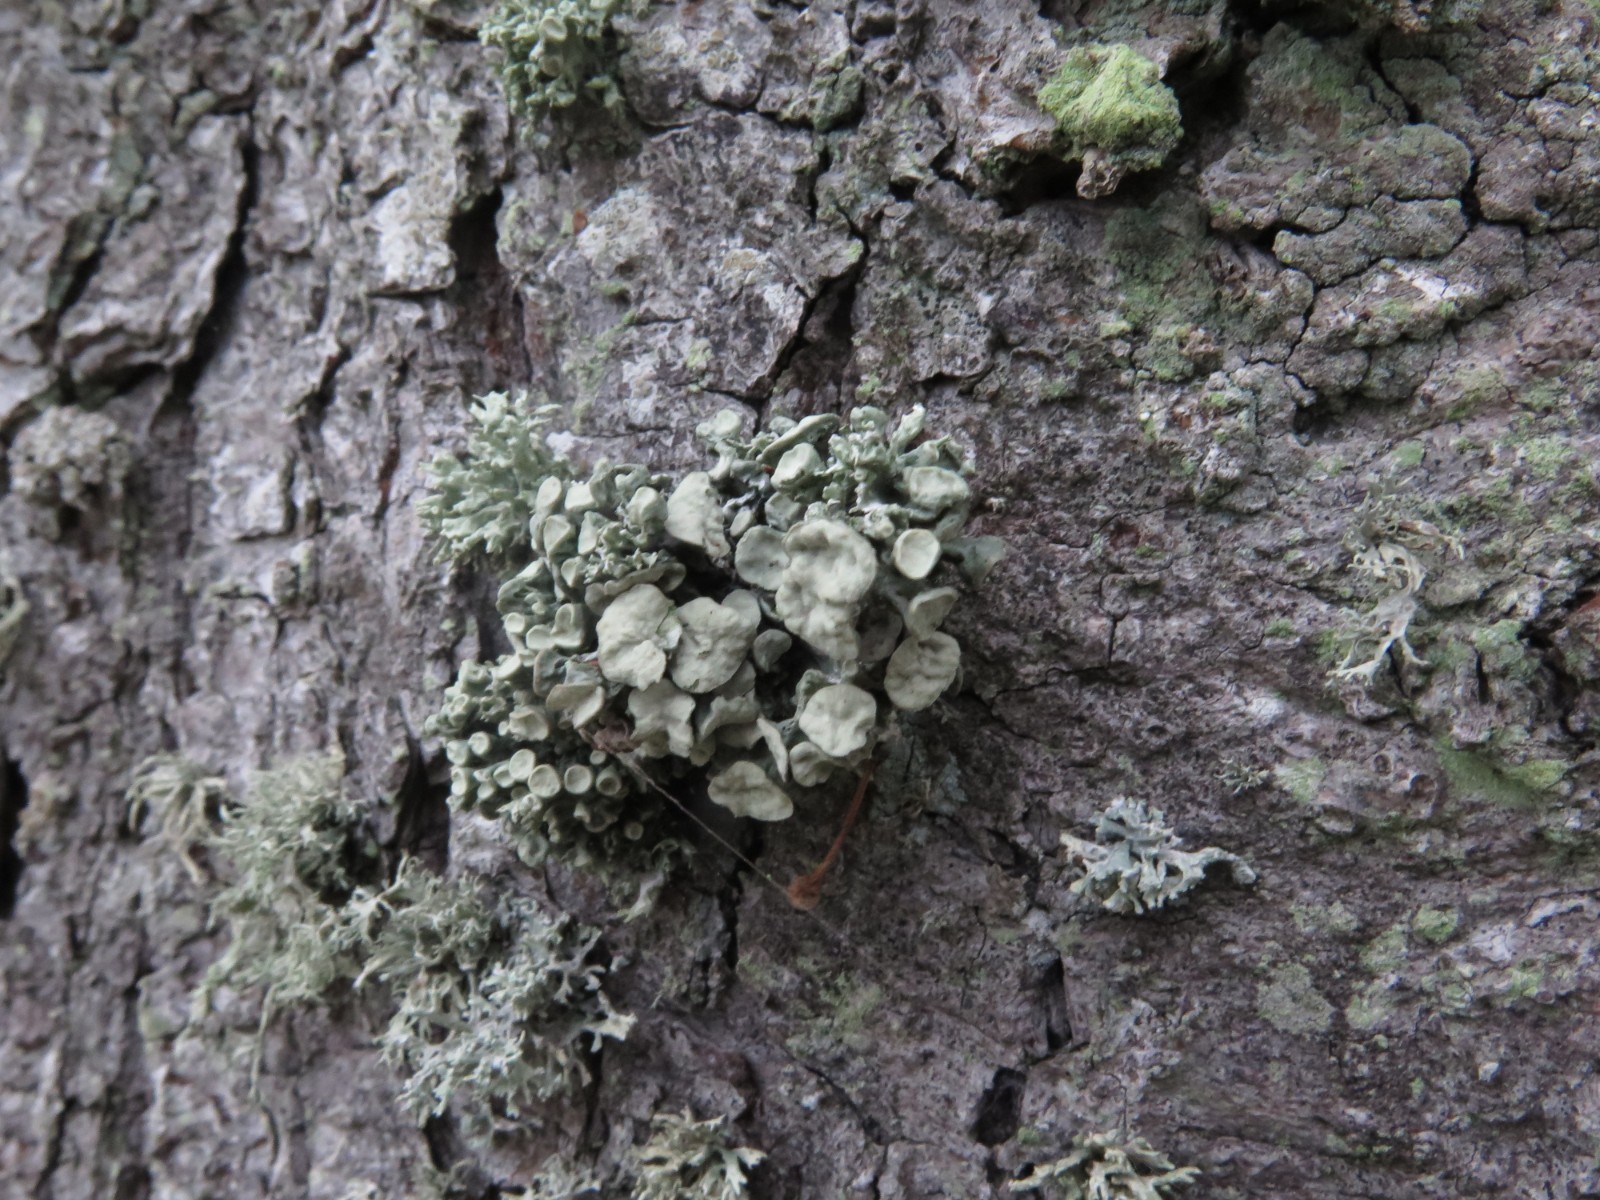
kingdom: Fungi
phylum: Ascomycota
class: Lecanoromycetes
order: Lecanorales
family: Ramalinaceae
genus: Ramalina
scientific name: Ramalina fastigiata
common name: tue-grenlav
